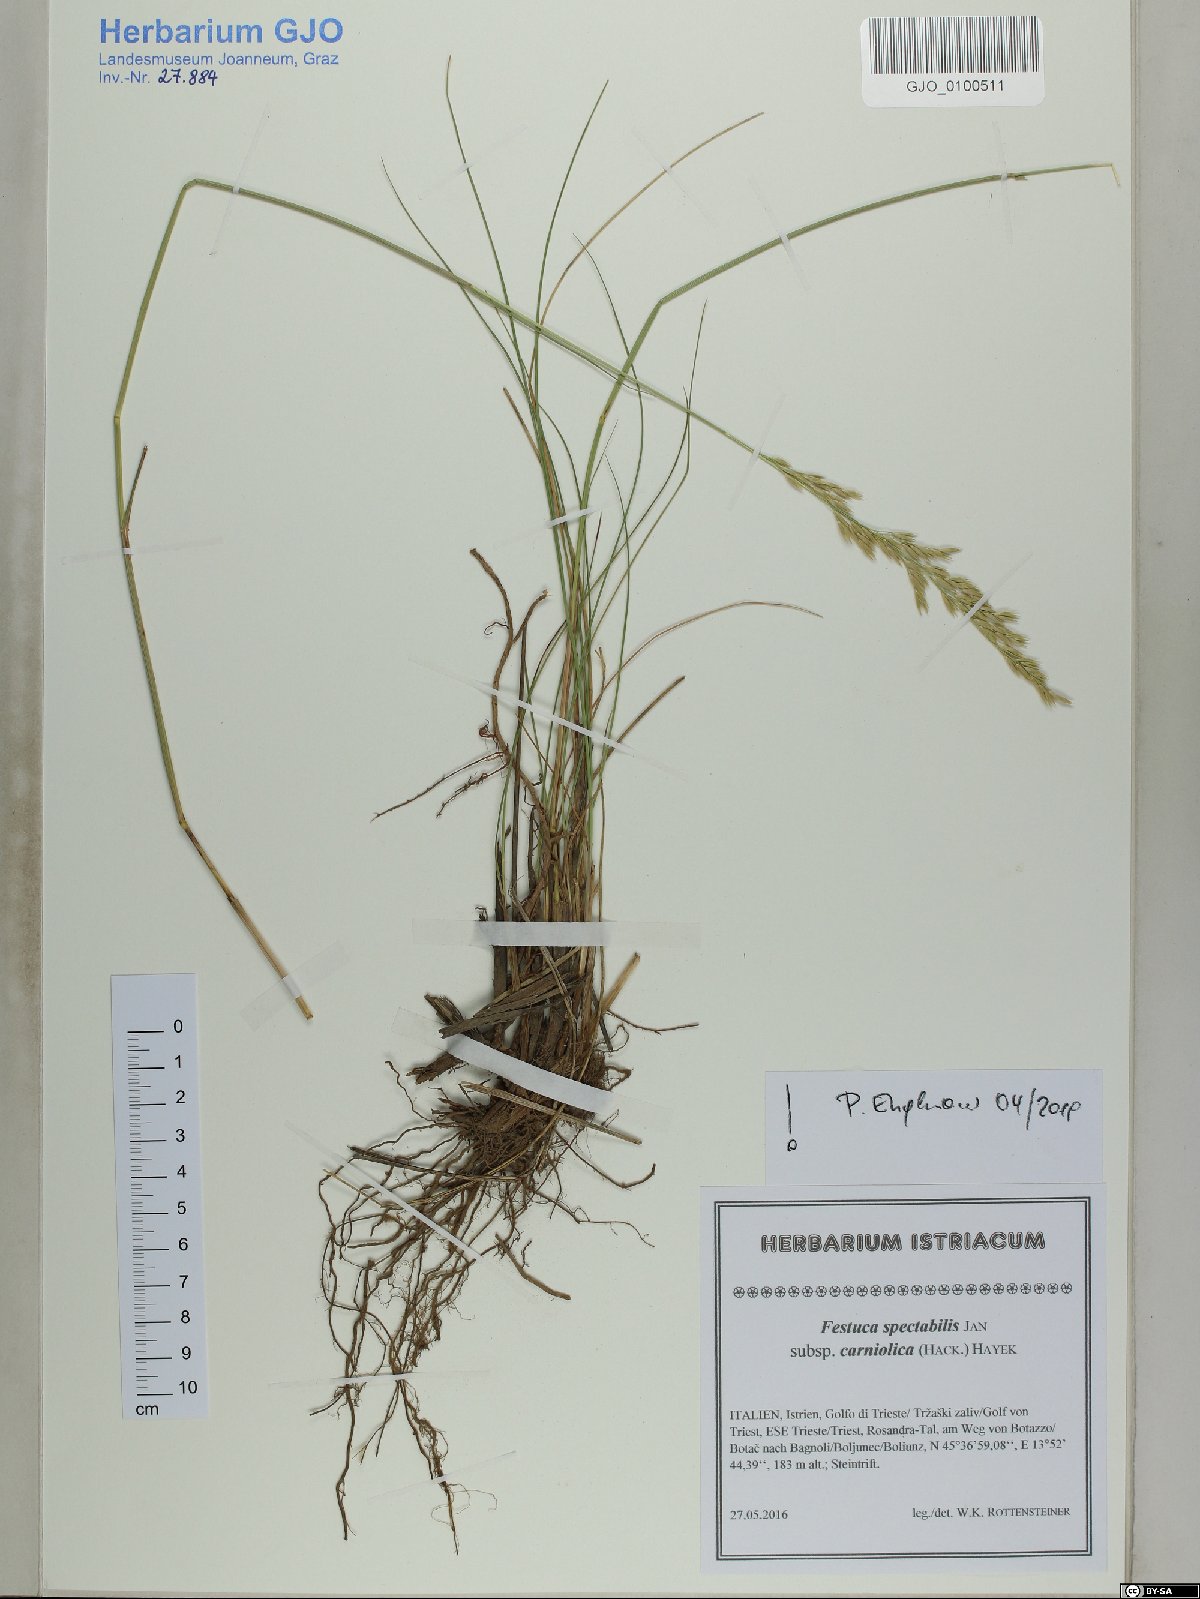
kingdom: Plantae
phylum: Tracheophyta
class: Liliopsida
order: Poales
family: Poaceae
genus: Festuca
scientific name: Festuca spectabilis
